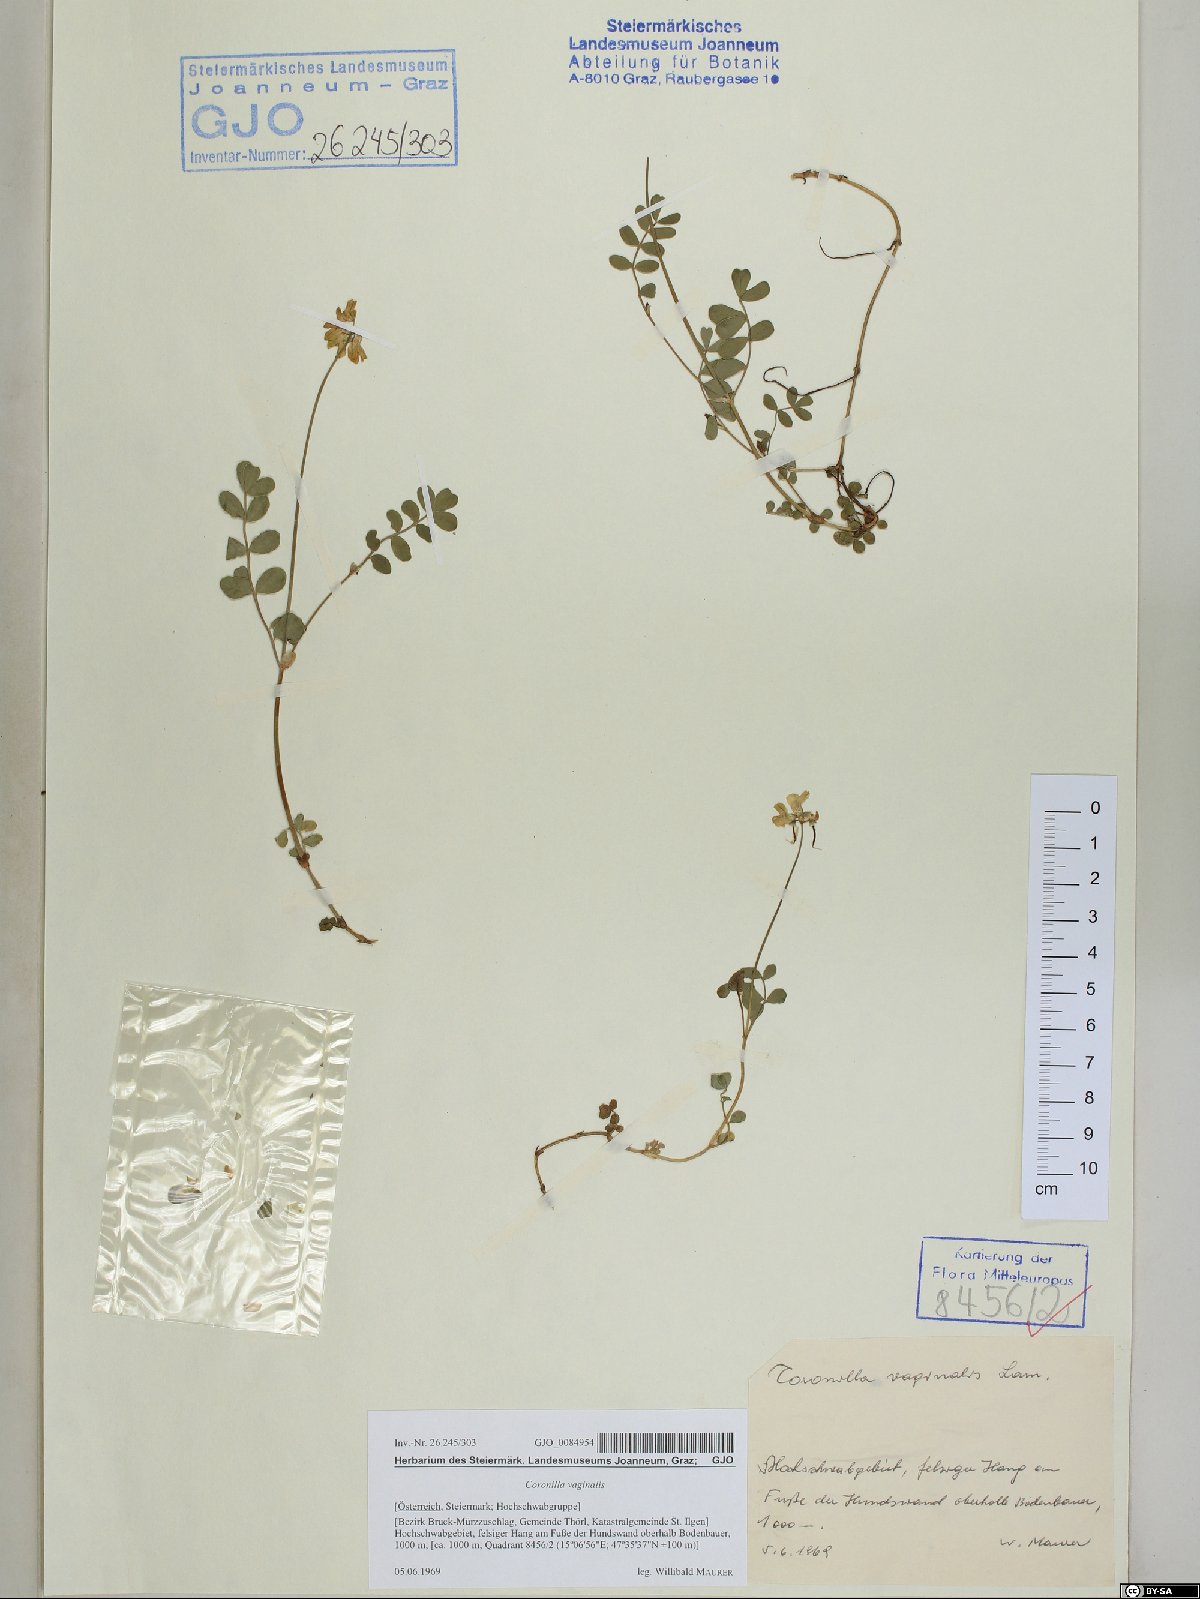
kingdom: Plantae
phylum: Tracheophyta
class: Magnoliopsida
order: Fabales
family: Fabaceae
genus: Coronilla
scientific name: Coronilla vaginalis
